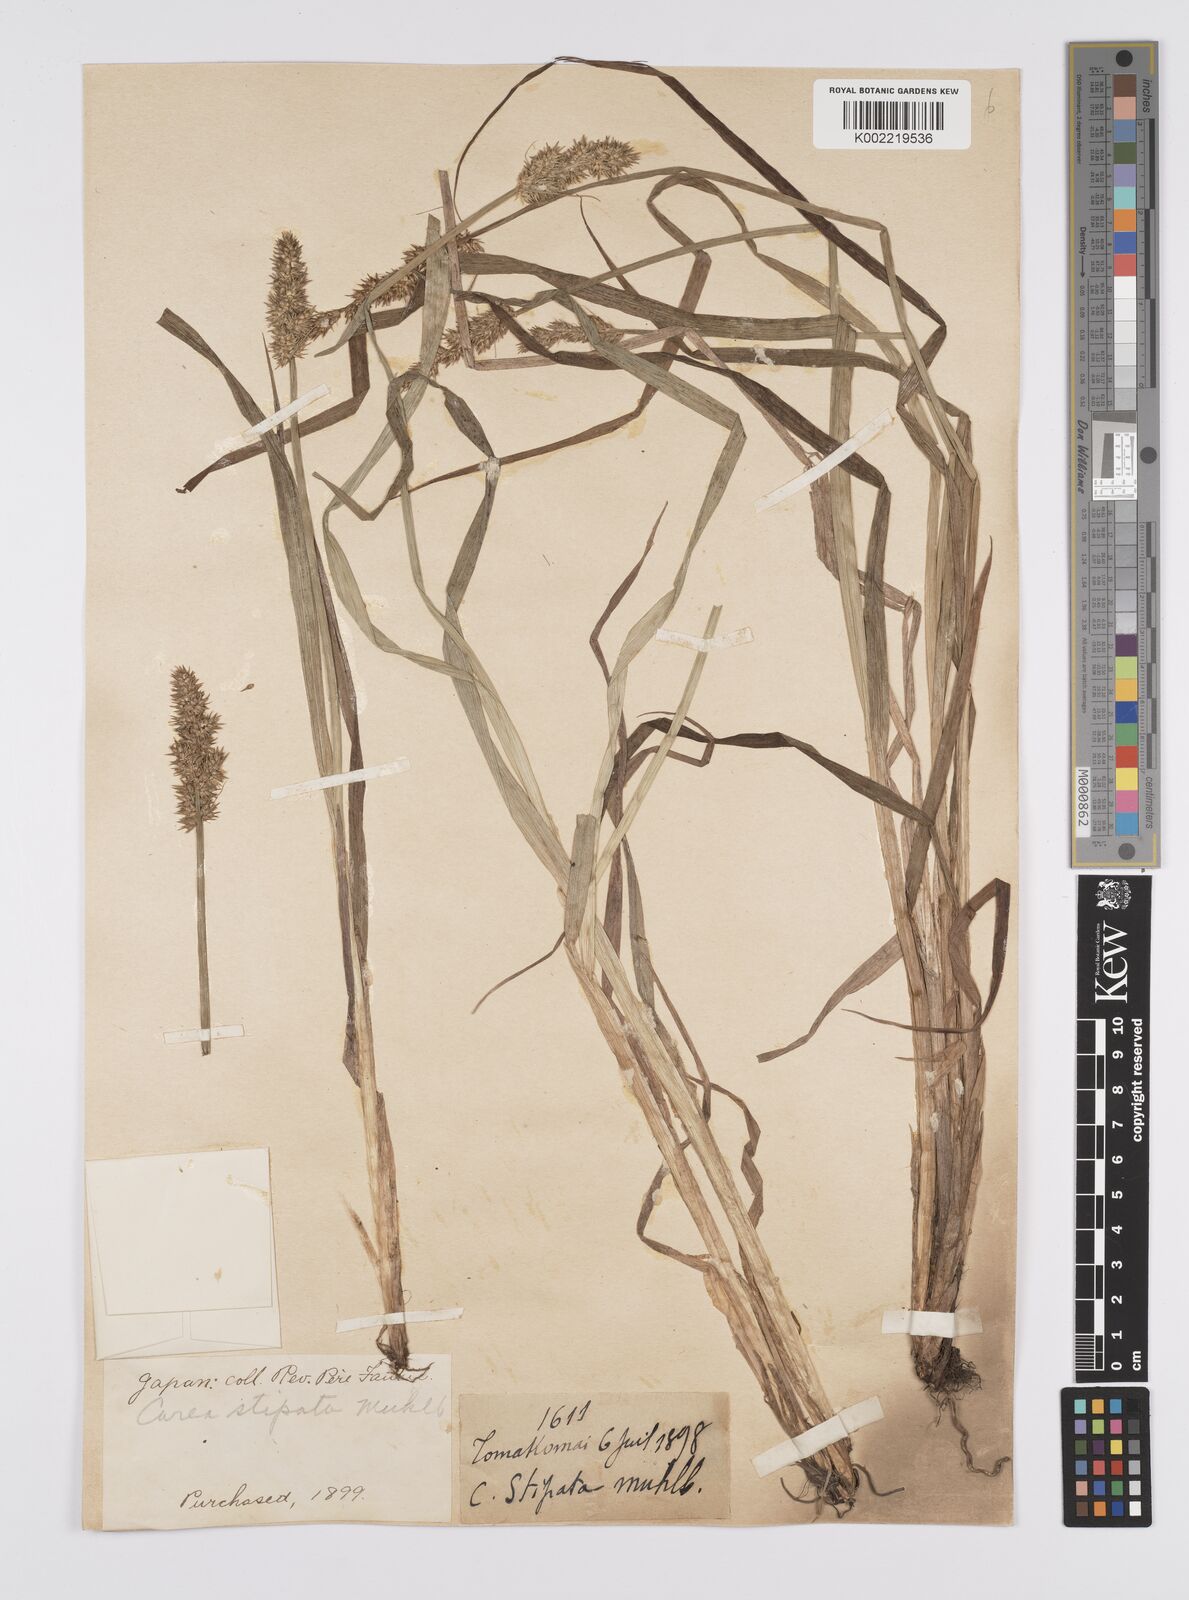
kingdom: Plantae
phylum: Tracheophyta
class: Liliopsida
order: Poales
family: Cyperaceae
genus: Carex
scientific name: Carex stipata
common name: Awl-fruited sedge
